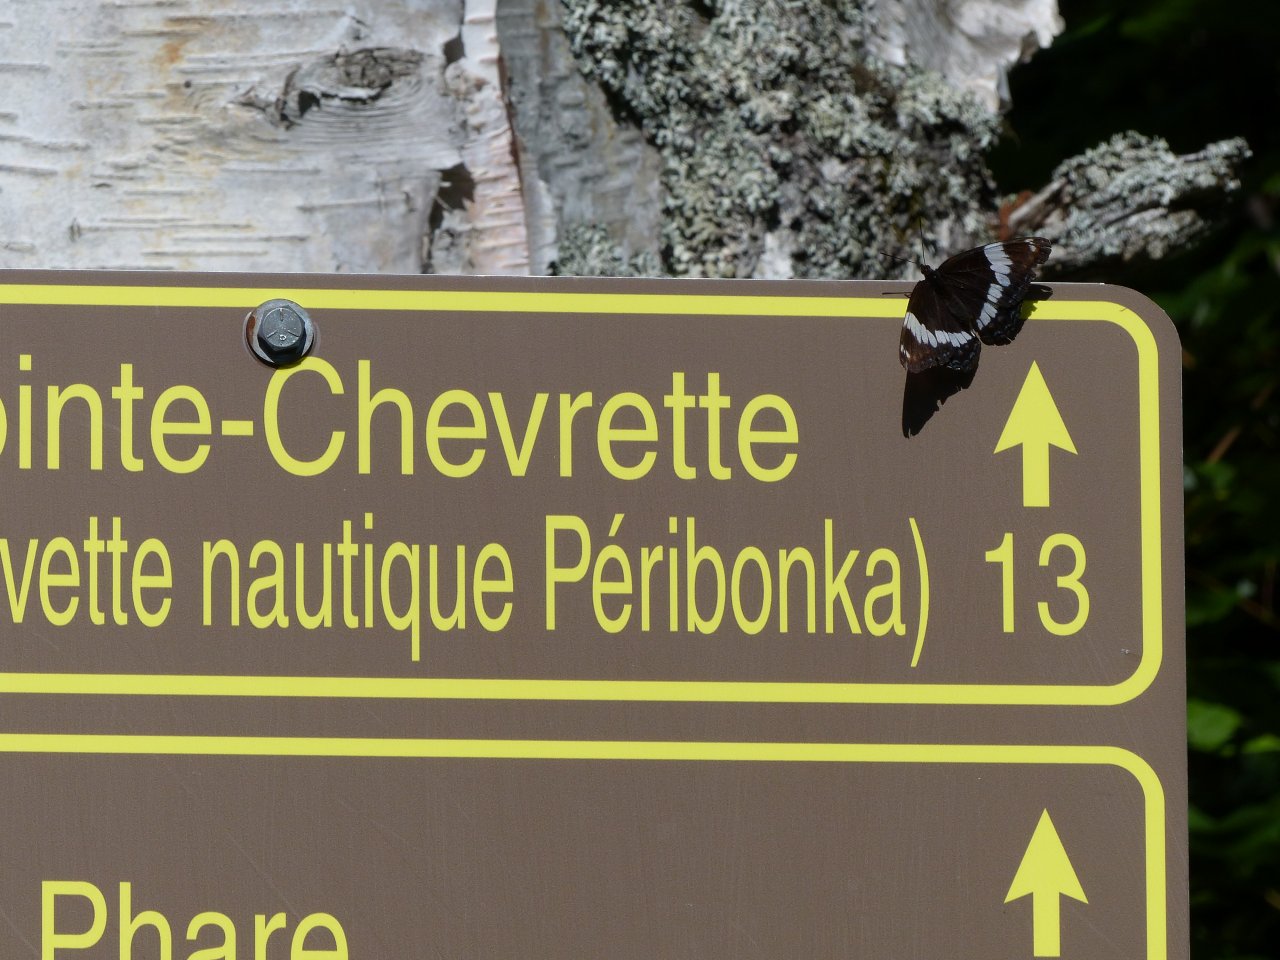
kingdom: Animalia
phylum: Arthropoda
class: Insecta
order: Lepidoptera
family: Nymphalidae
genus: Limenitis
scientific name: Limenitis arthemis
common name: Red-spotted Admiral
